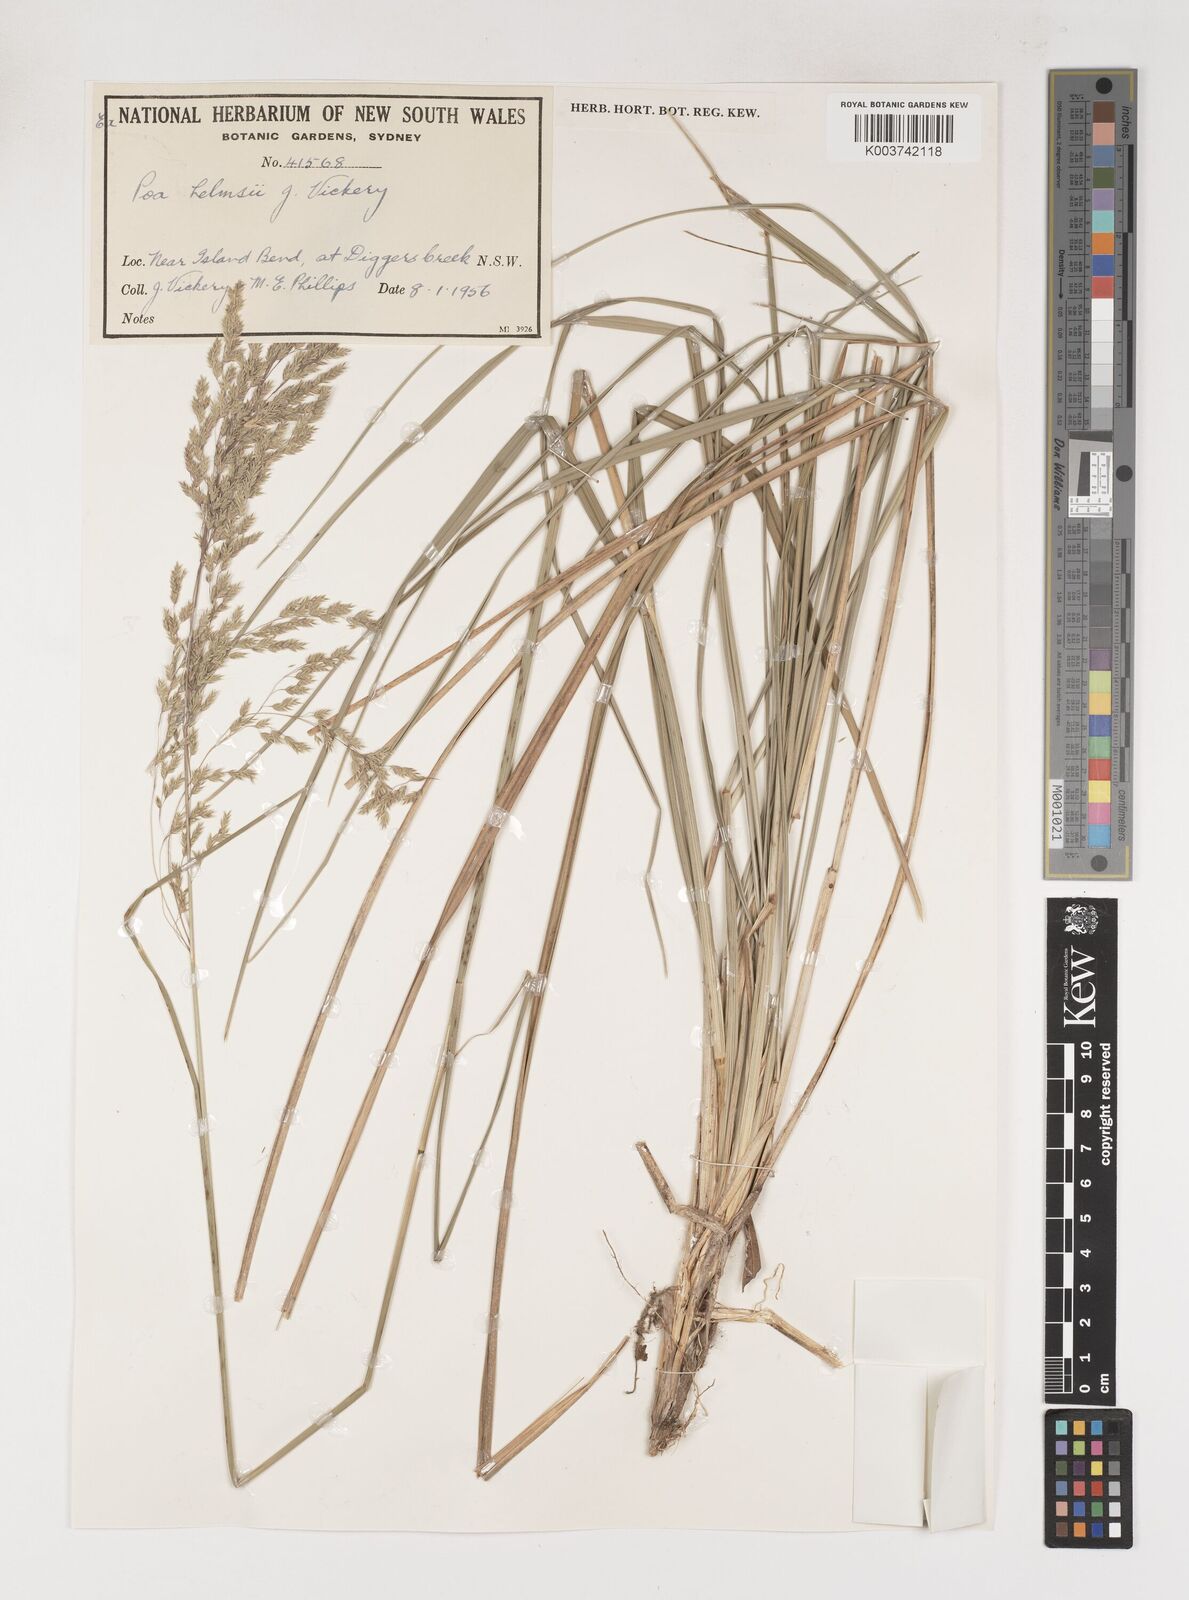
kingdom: Plantae
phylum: Tracheophyta
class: Liliopsida
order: Poales
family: Poaceae
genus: Poa
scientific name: Poa helmsii
